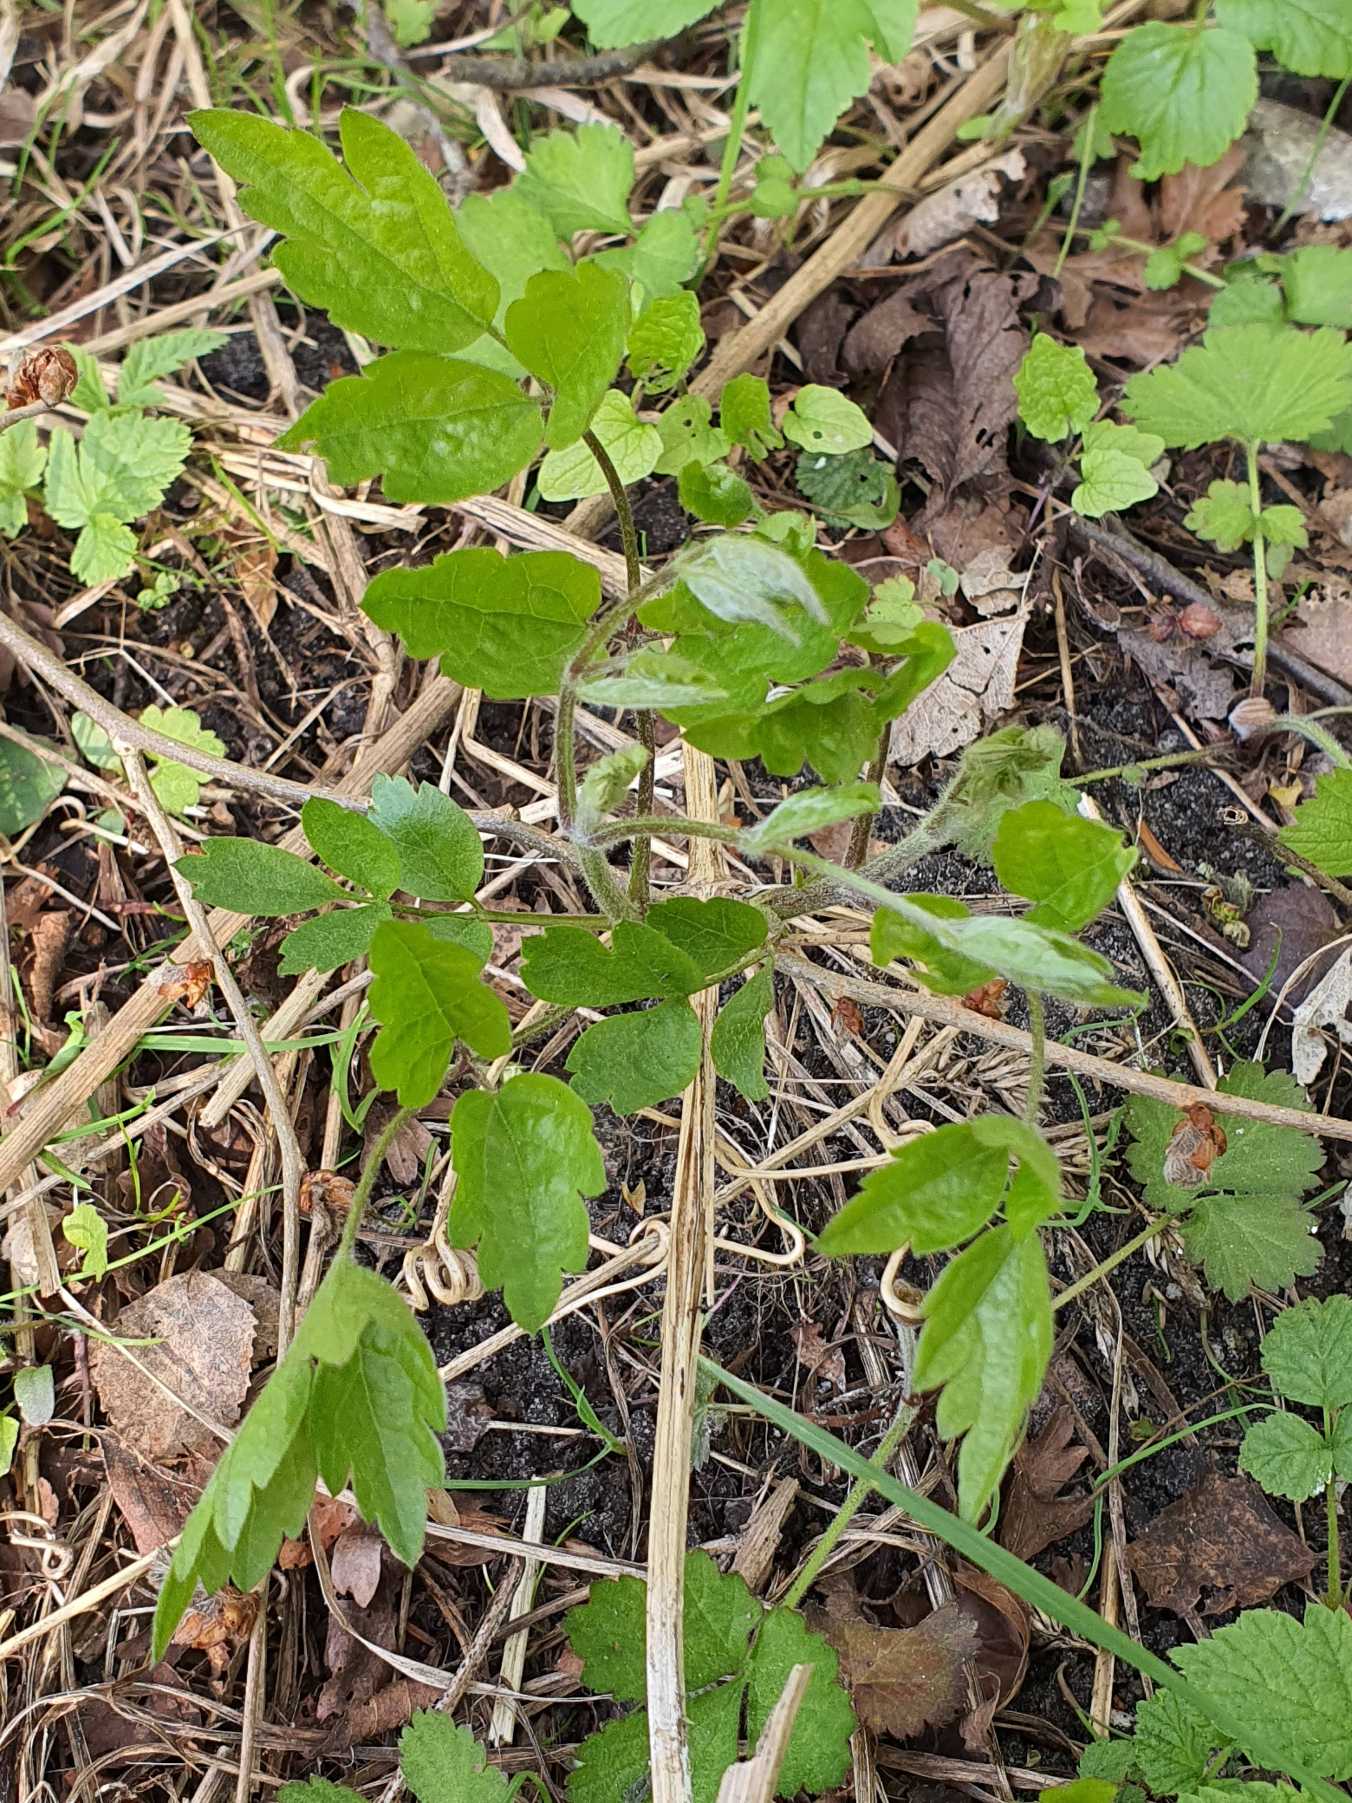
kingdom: Plantae
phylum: Tracheophyta
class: Magnoliopsida
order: Ranunculales
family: Ranunculaceae
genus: Clematis
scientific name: Clematis vitalba
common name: Skovranke
